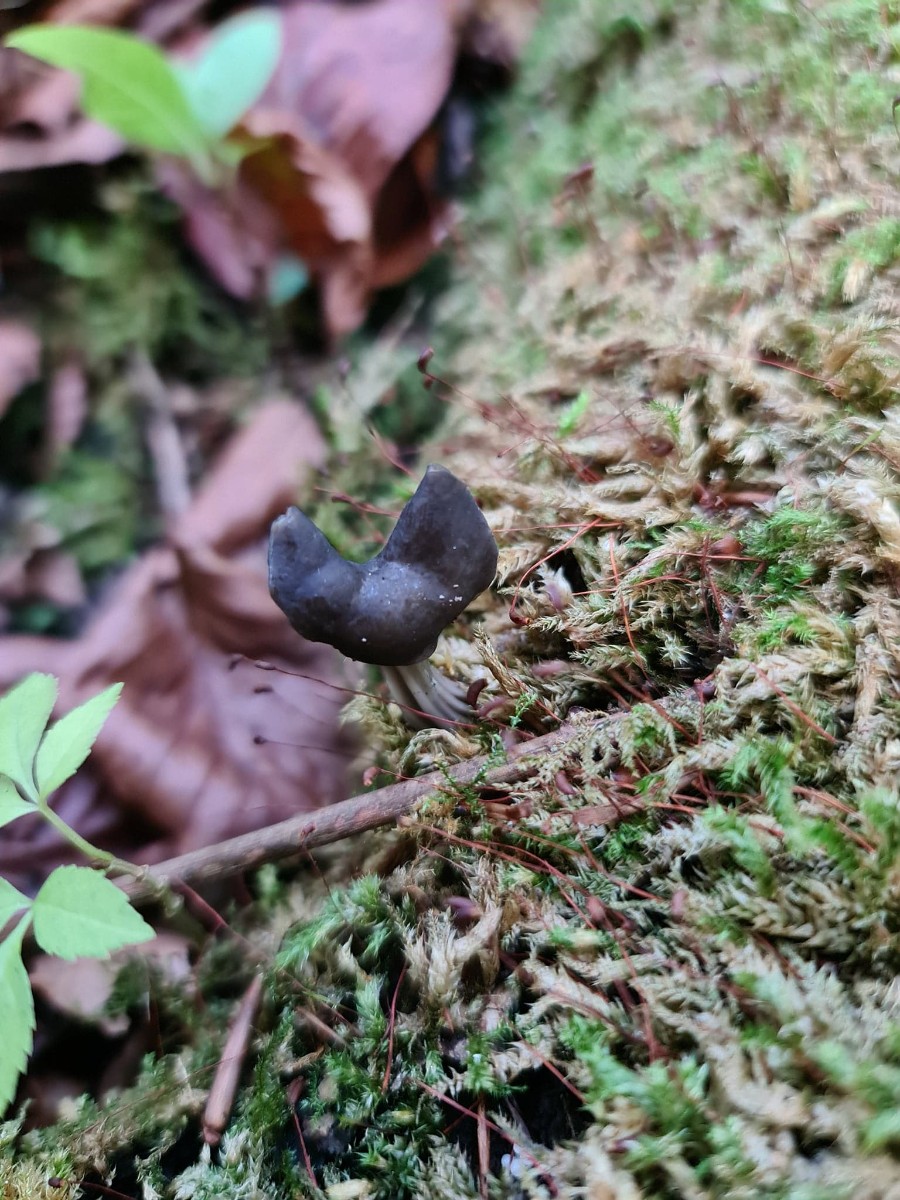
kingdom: Fungi
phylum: Ascomycota
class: Pezizomycetes
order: Pezizales
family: Helvellaceae
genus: Helvella
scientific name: Helvella lacunosa
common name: grubet foldhat
